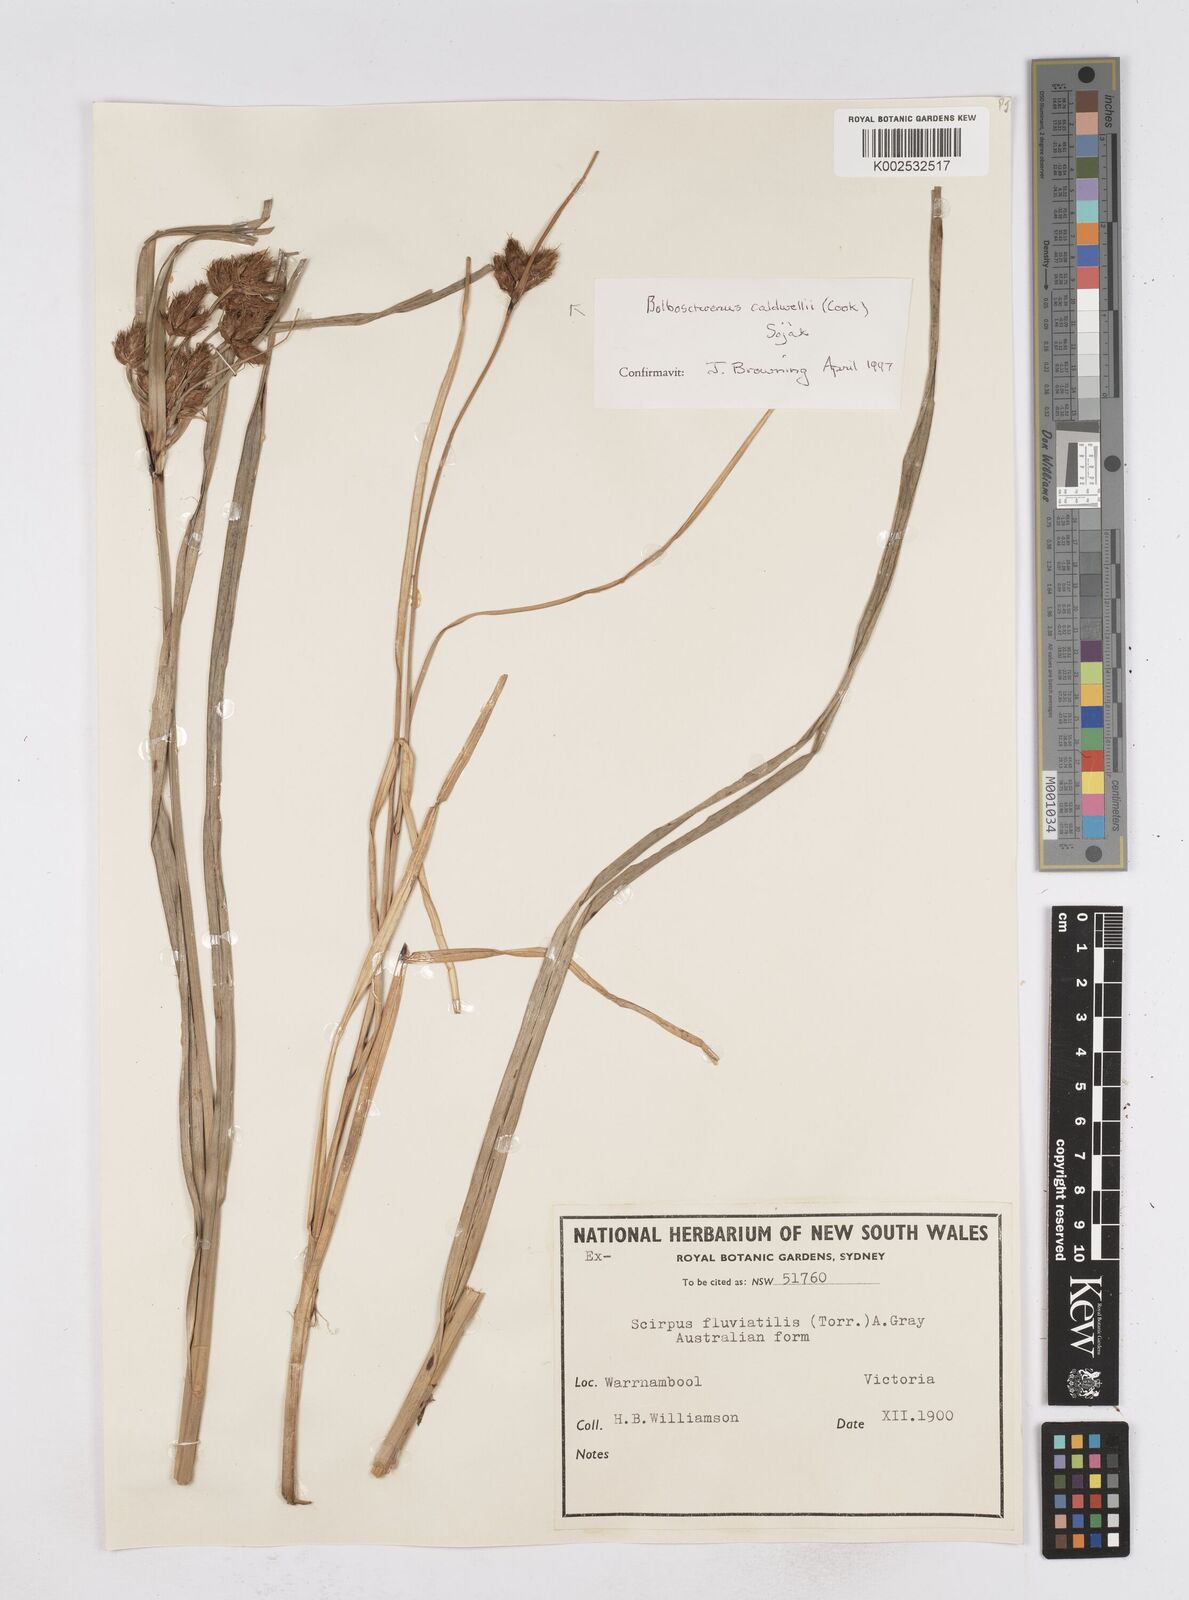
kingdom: Plantae
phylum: Tracheophyta
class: Liliopsida
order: Poales
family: Cyperaceae
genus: Bolboschoenus
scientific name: Bolboschoenus maritimus
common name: Sea club-rush
